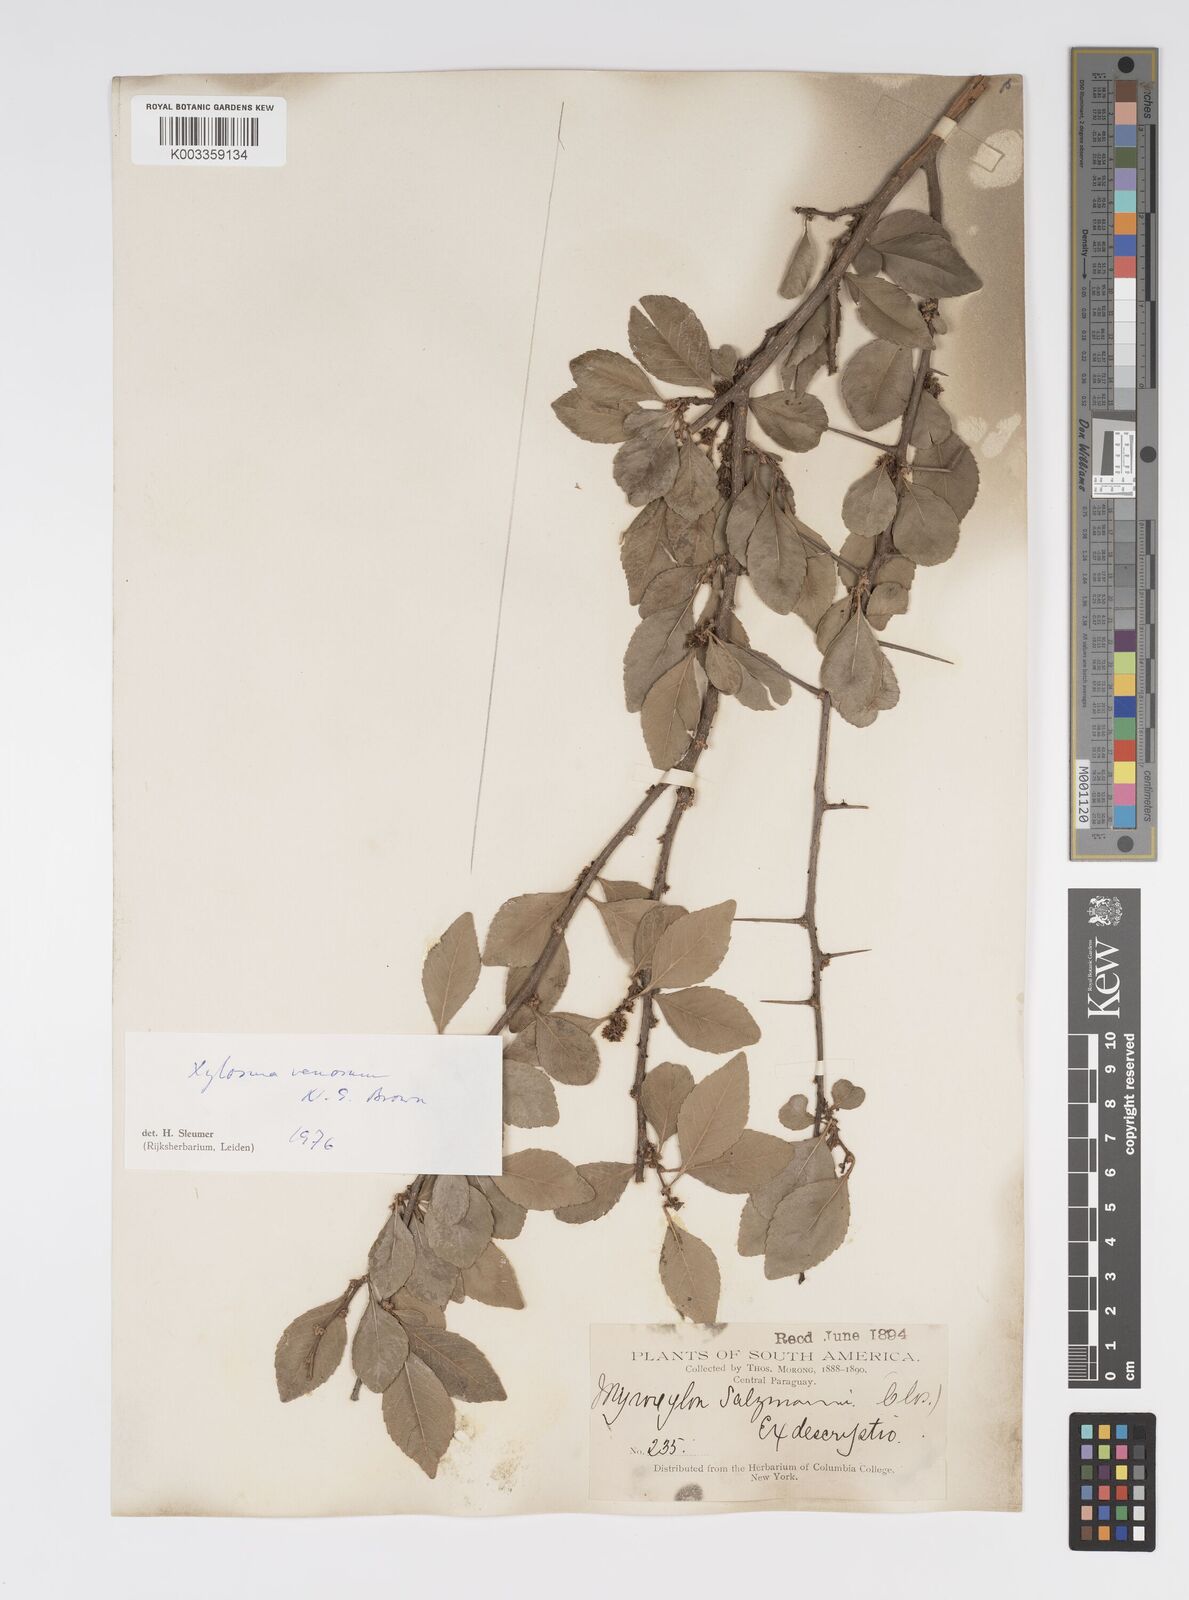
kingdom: Plantae
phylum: Tracheophyta
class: Magnoliopsida
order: Malpighiales
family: Salicaceae
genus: Xylosma
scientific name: Xylosma venosa
